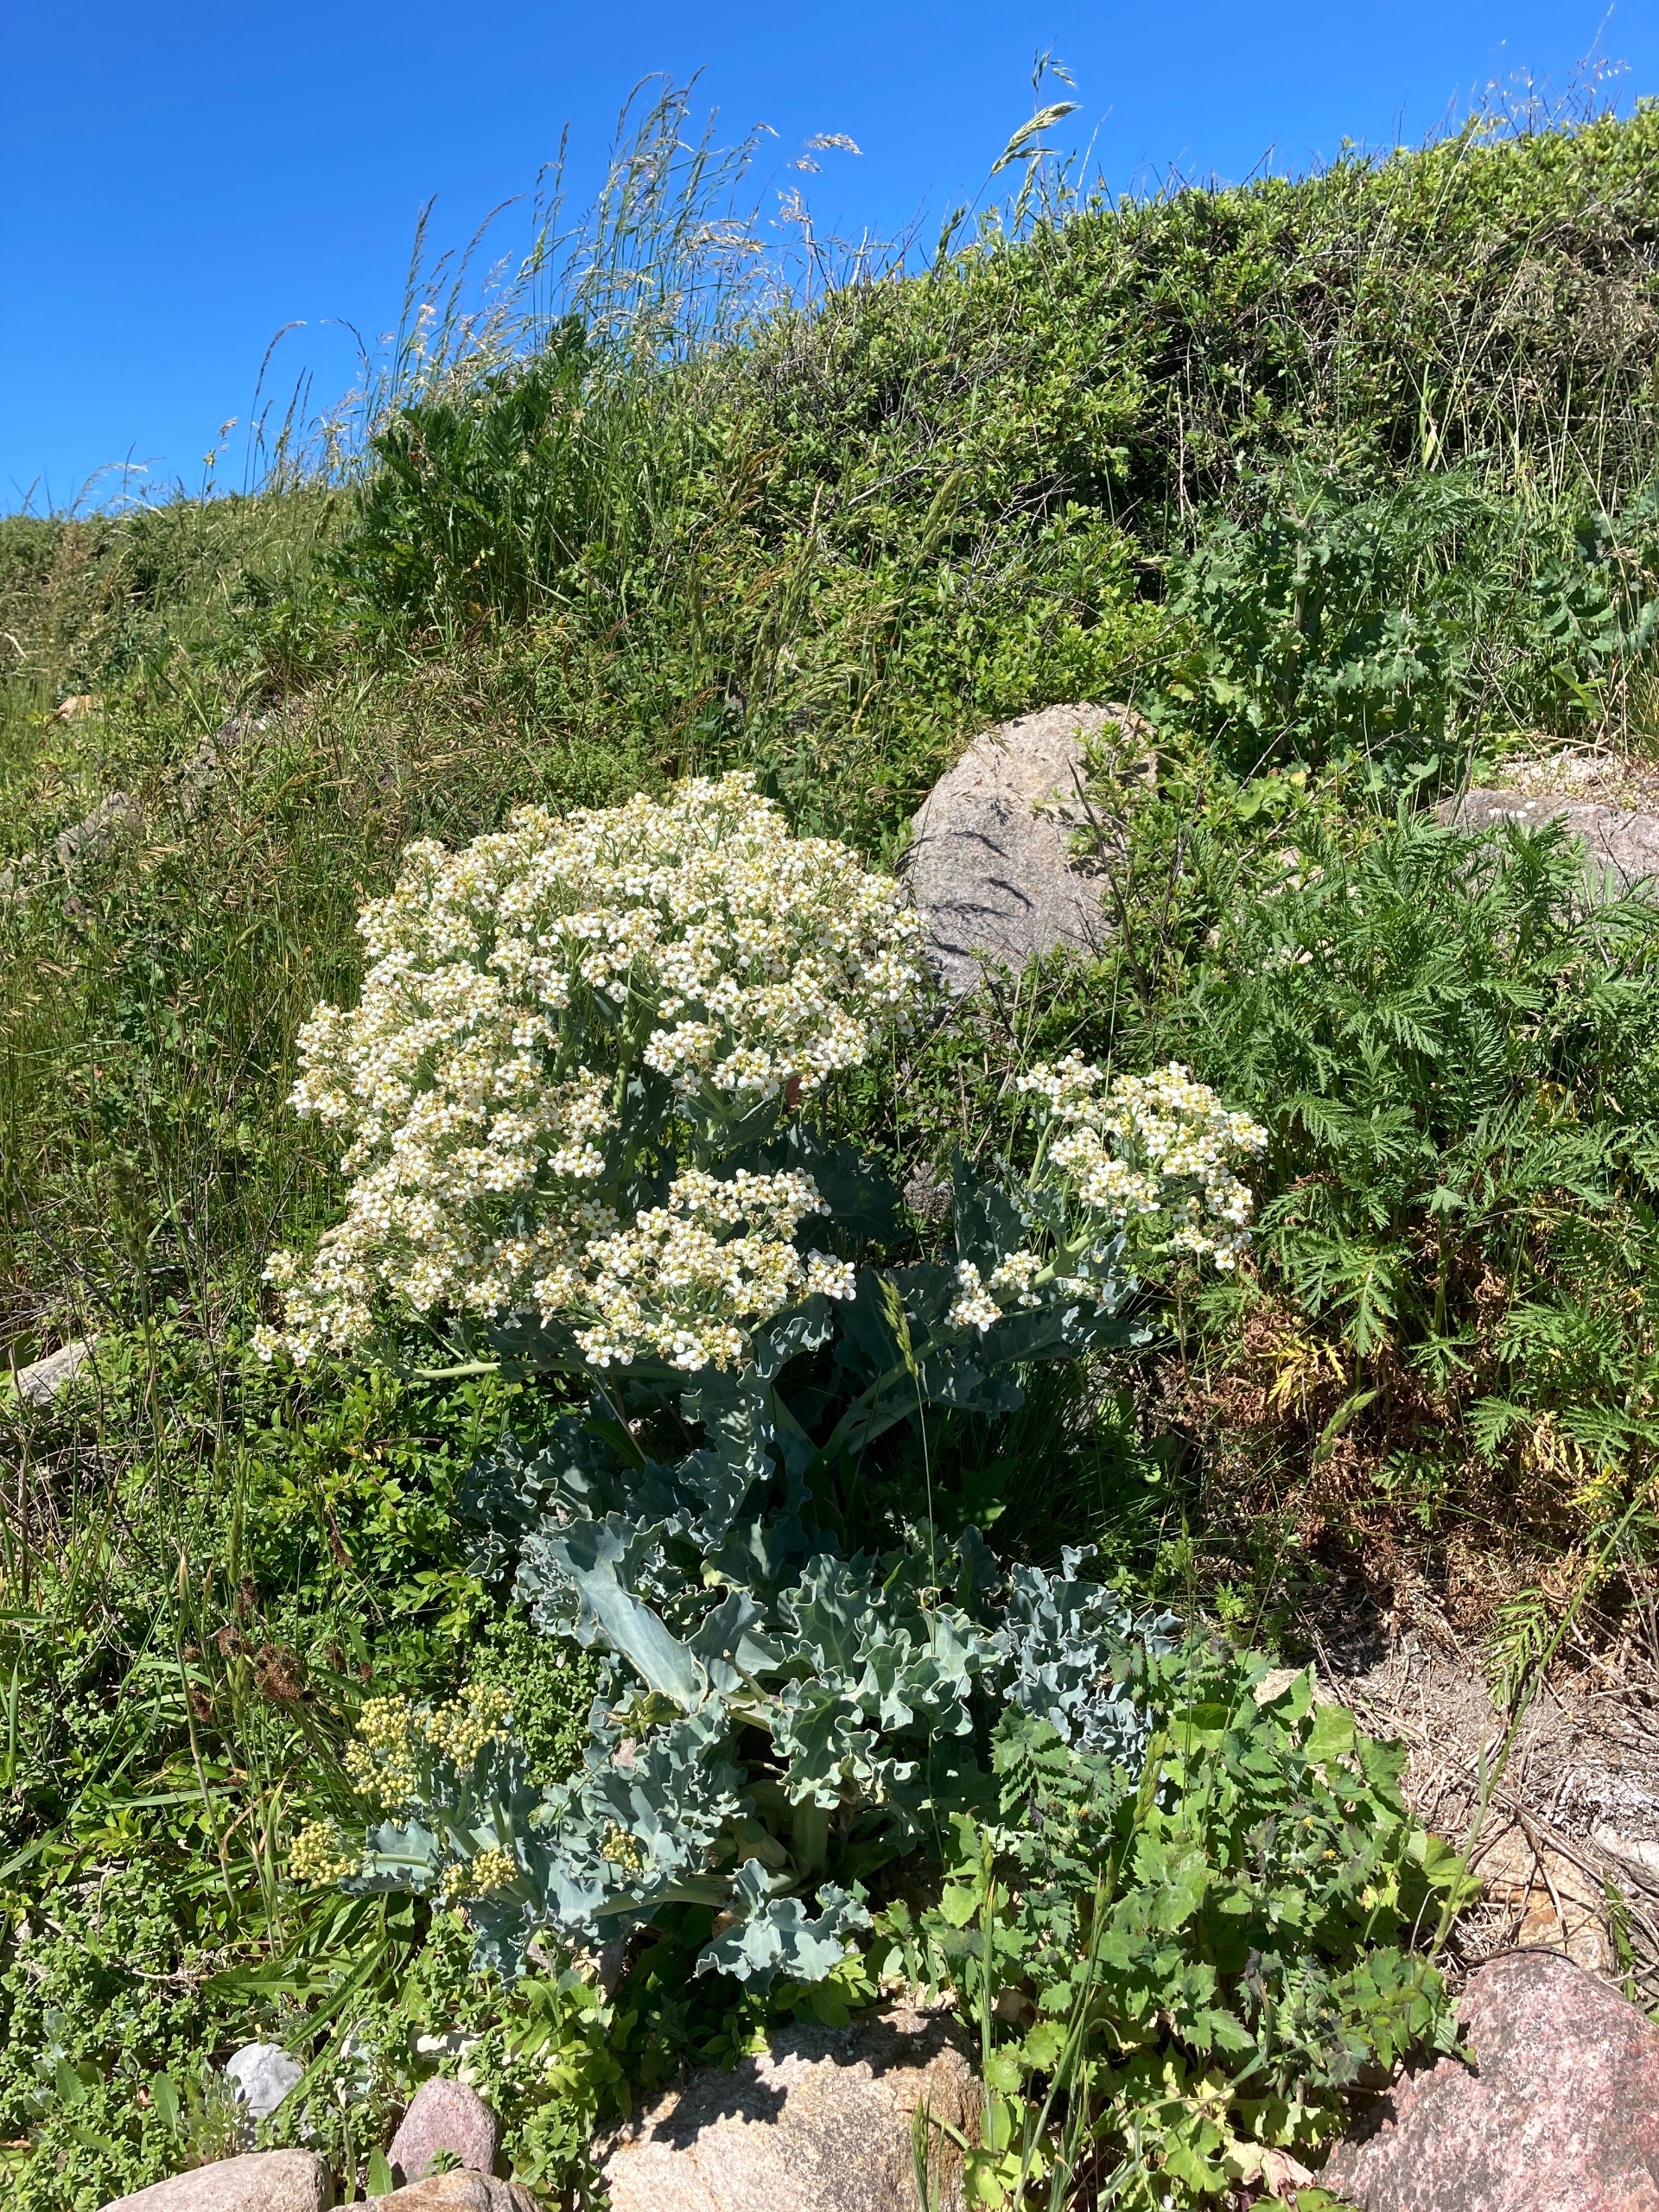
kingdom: Plantae
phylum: Tracheophyta
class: Magnoliopsida
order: Brassicales
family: Brassicaceae
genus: Crambe
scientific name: Crambe maritima
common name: Strandkål
